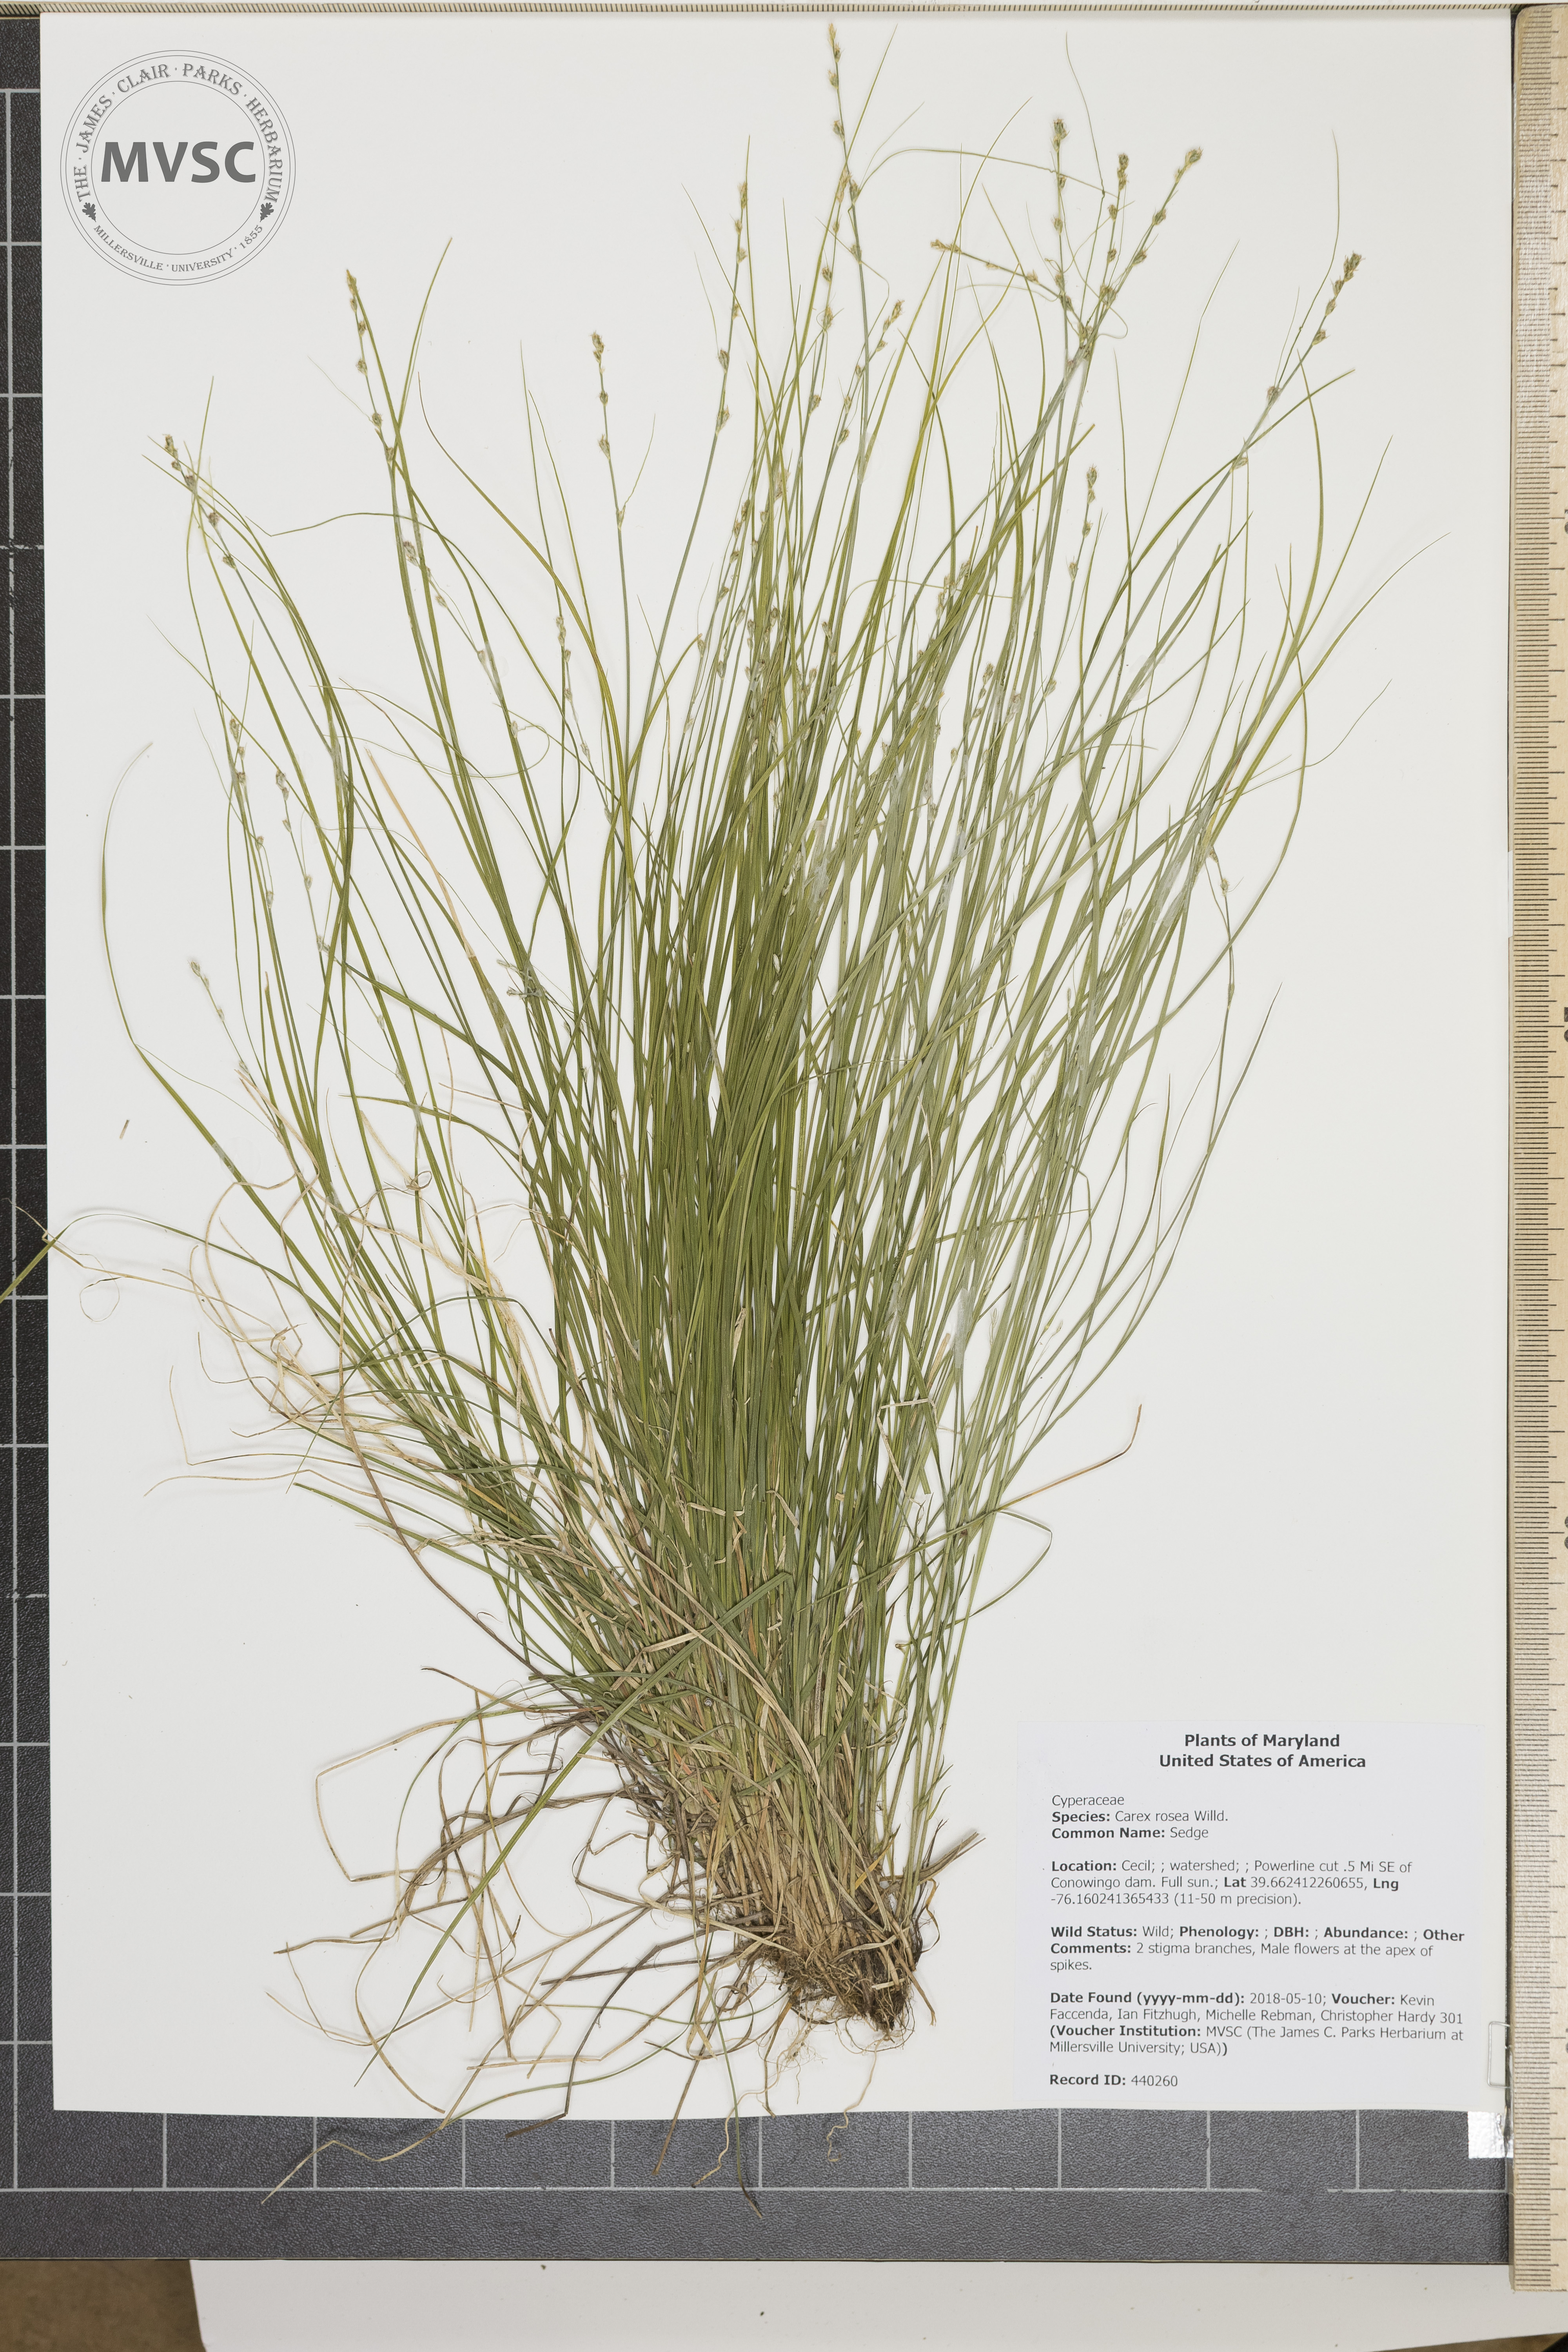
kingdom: Plantae
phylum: Tracheophyta
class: Liliopsida
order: Poales
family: Cyperaceae
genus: Carex
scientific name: Carex rosea
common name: Sedge
